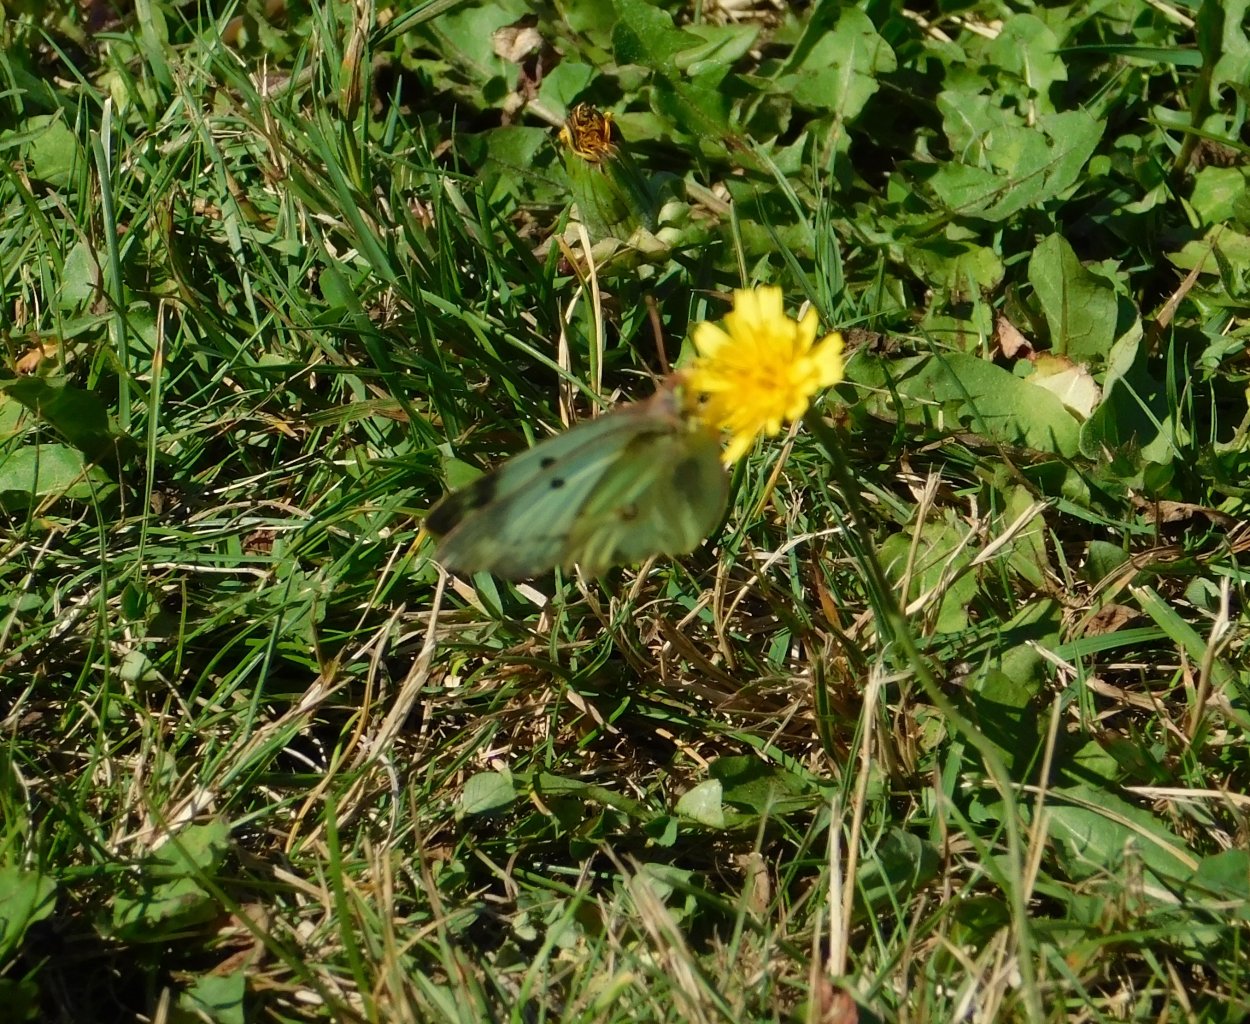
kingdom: Animalia
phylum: Arthropoda
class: Insecta
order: Lepidoptera
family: Pieridae
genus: Colias
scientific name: Colias philodice
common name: Clouded Sulphur
